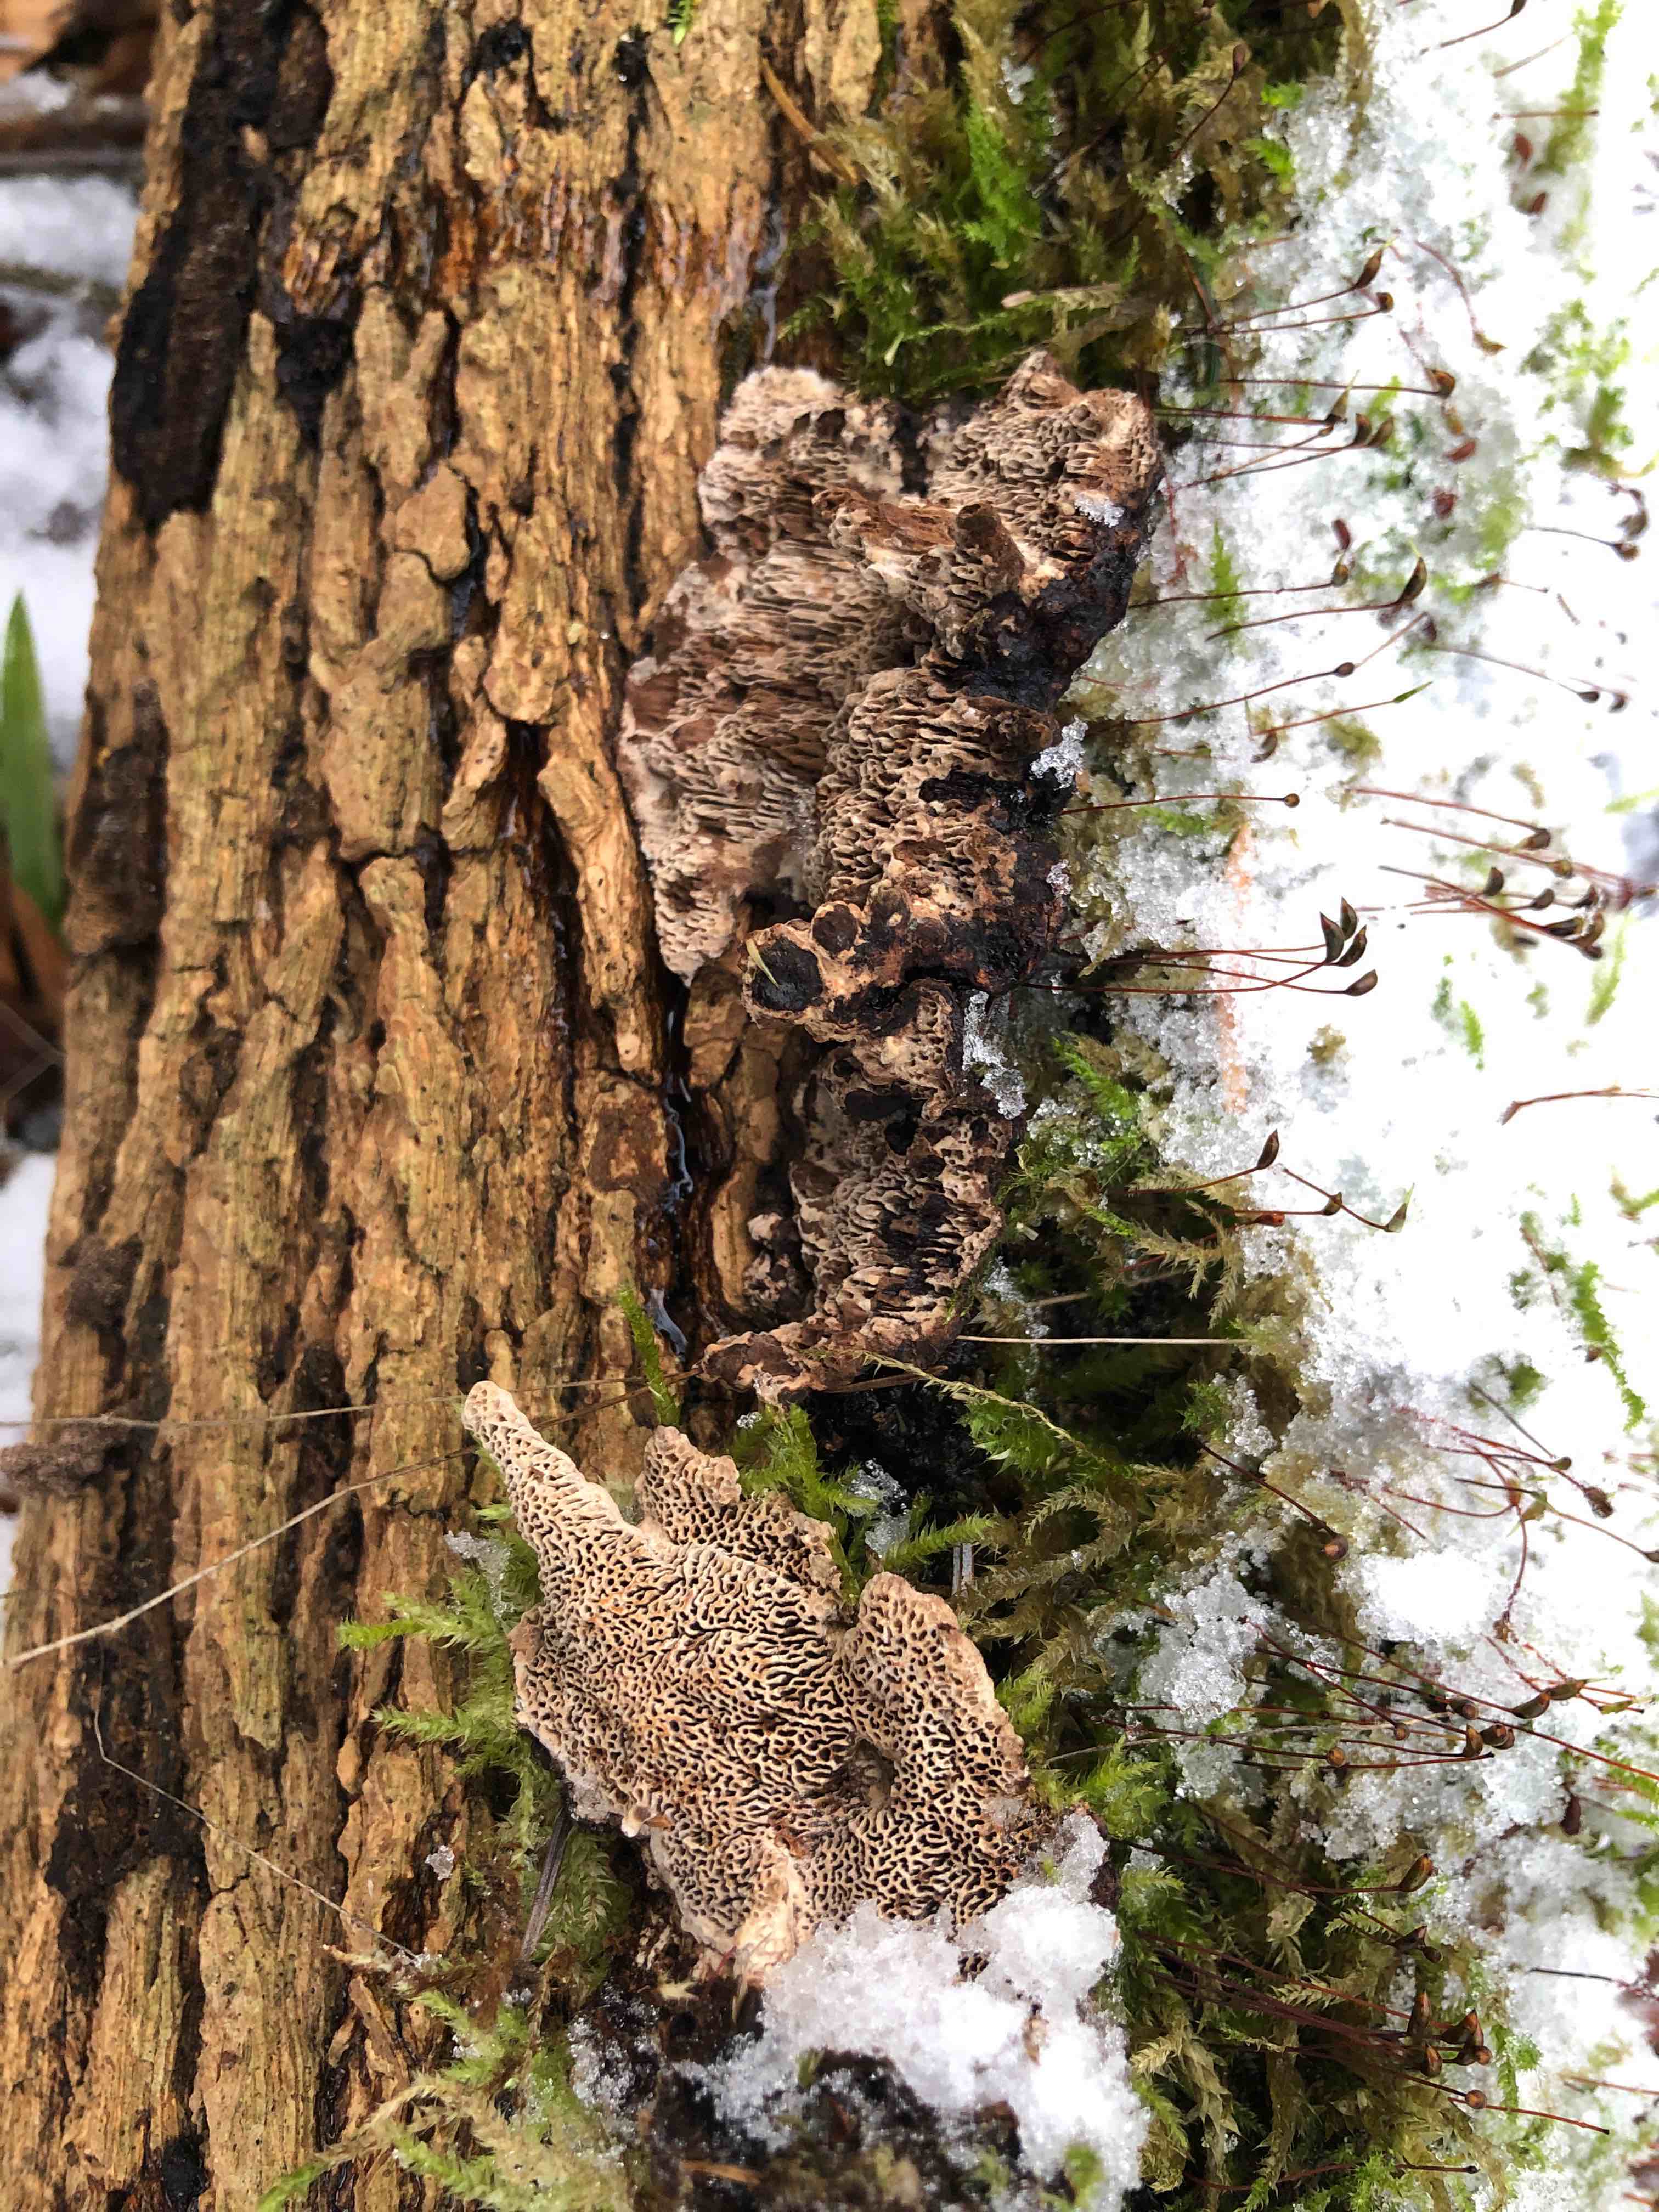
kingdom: Fungi
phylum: Basidiomycota
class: Agaricomycetes
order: Polyporales
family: Polyporaceae
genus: Podofomes
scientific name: Podofomes mollis
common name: blød begporesvamp
